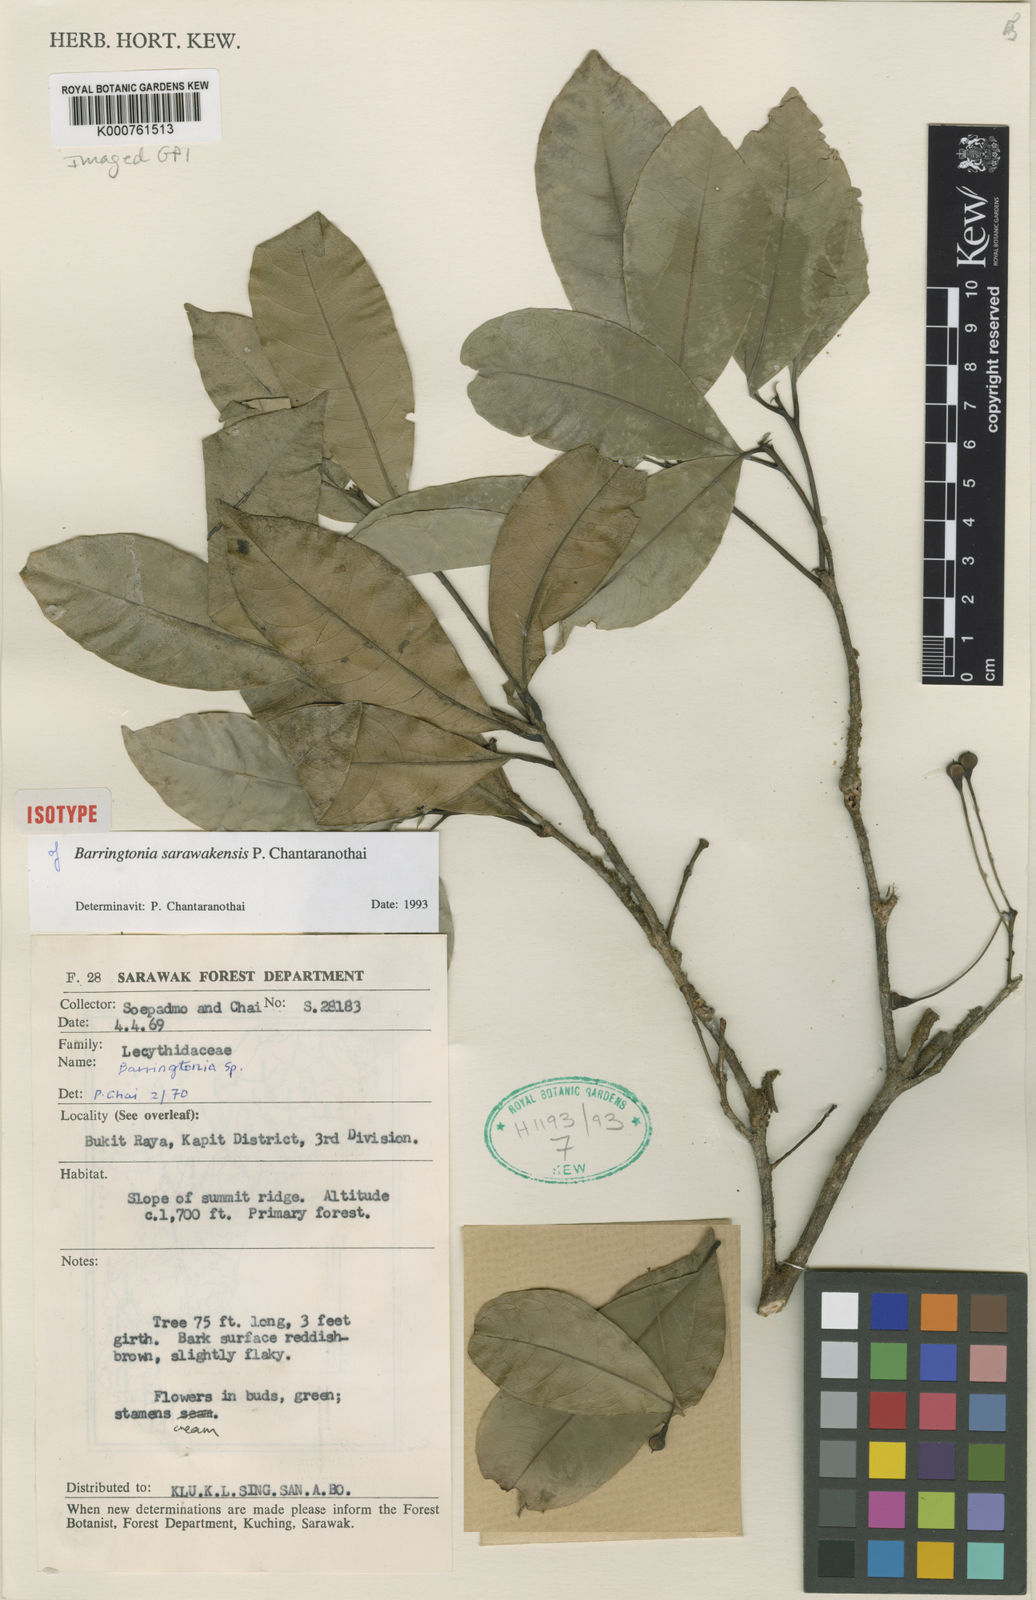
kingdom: Plantae
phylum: Tracheophyta
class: Magnoliopsida
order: Ericales
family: Lecythidaceae
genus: Barringtonia
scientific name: Barringtonia sarawakensis
